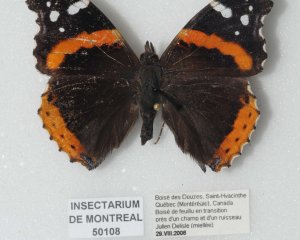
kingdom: Animalia
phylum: Arthropoda
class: Insecta
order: Lepidoptera
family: Nymphalidae
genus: Vanessa
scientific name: Vanessa atalanta
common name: Red Admiral
